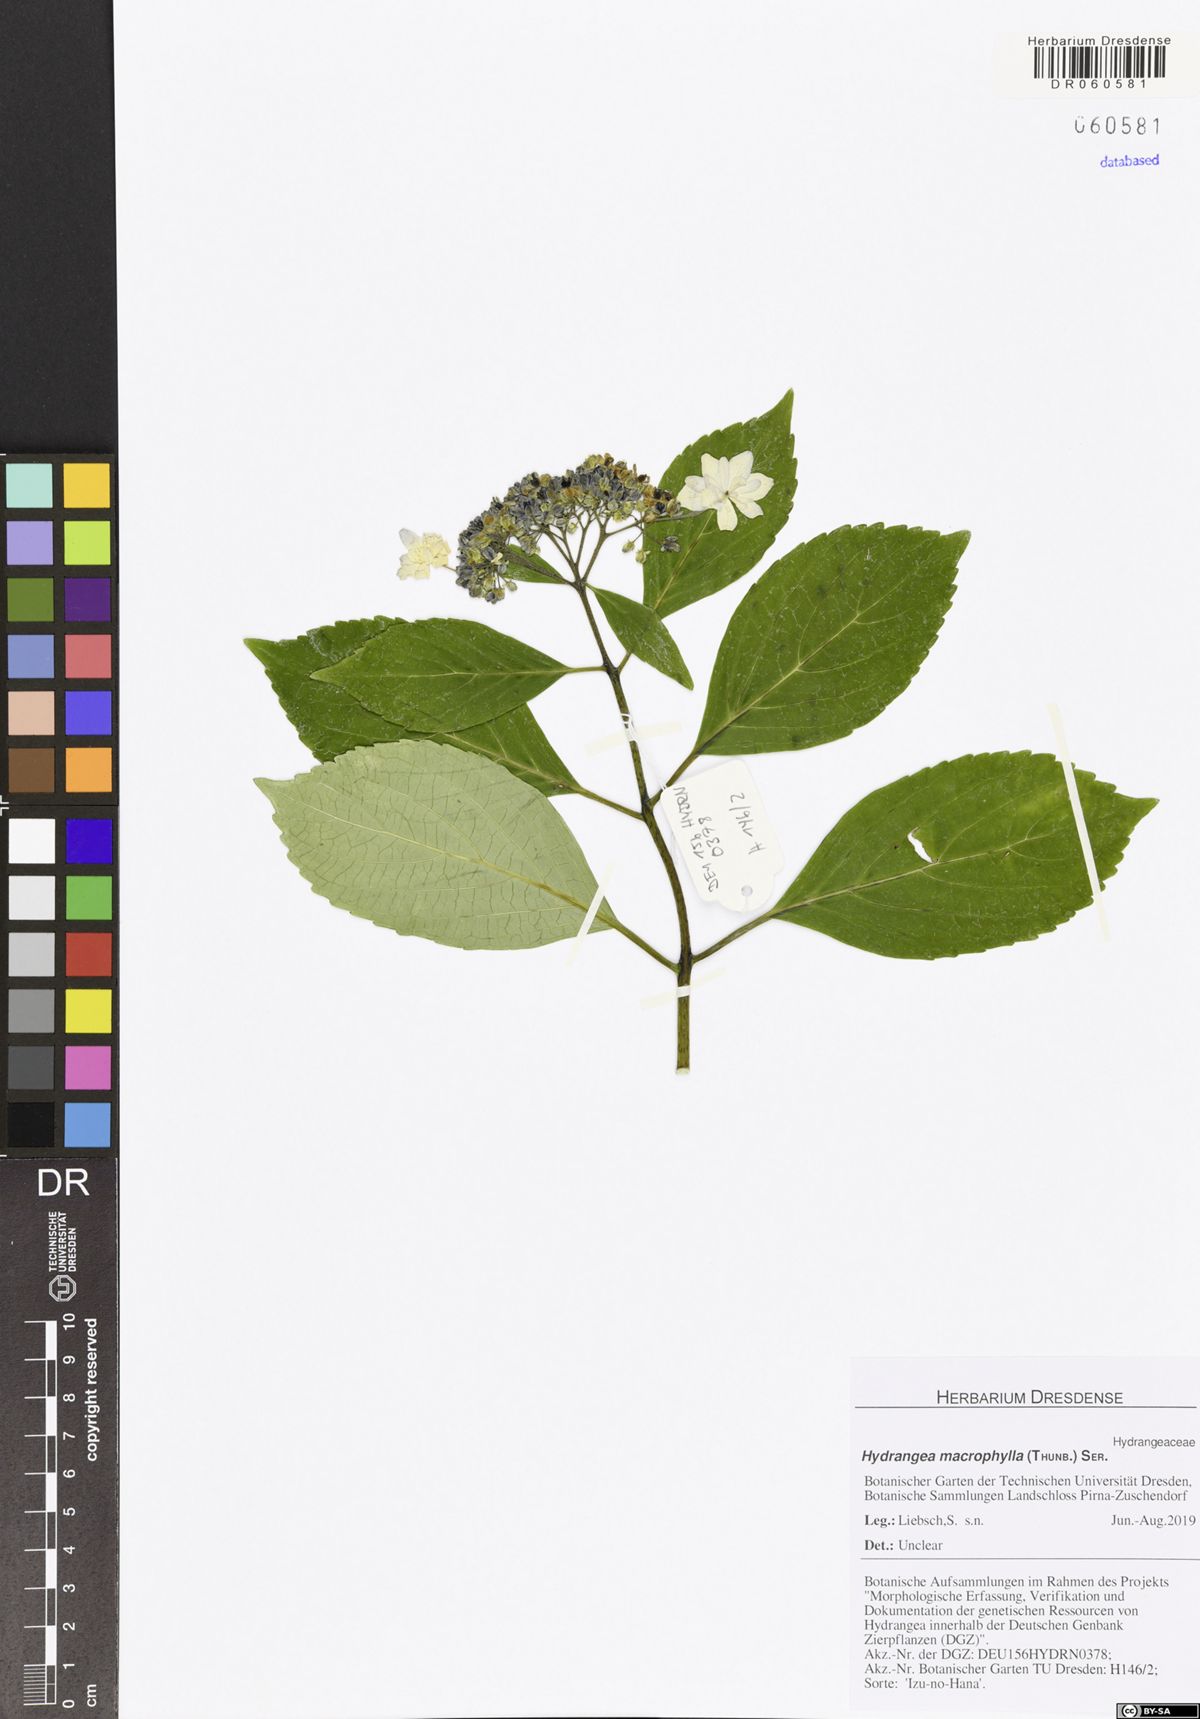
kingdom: Plantae
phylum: Tracheophyta
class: Magnoliopsida
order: Cornales
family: Hydrangeaceae
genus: Hydrangea
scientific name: Hydrangea macrophylla
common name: Hydrangea
